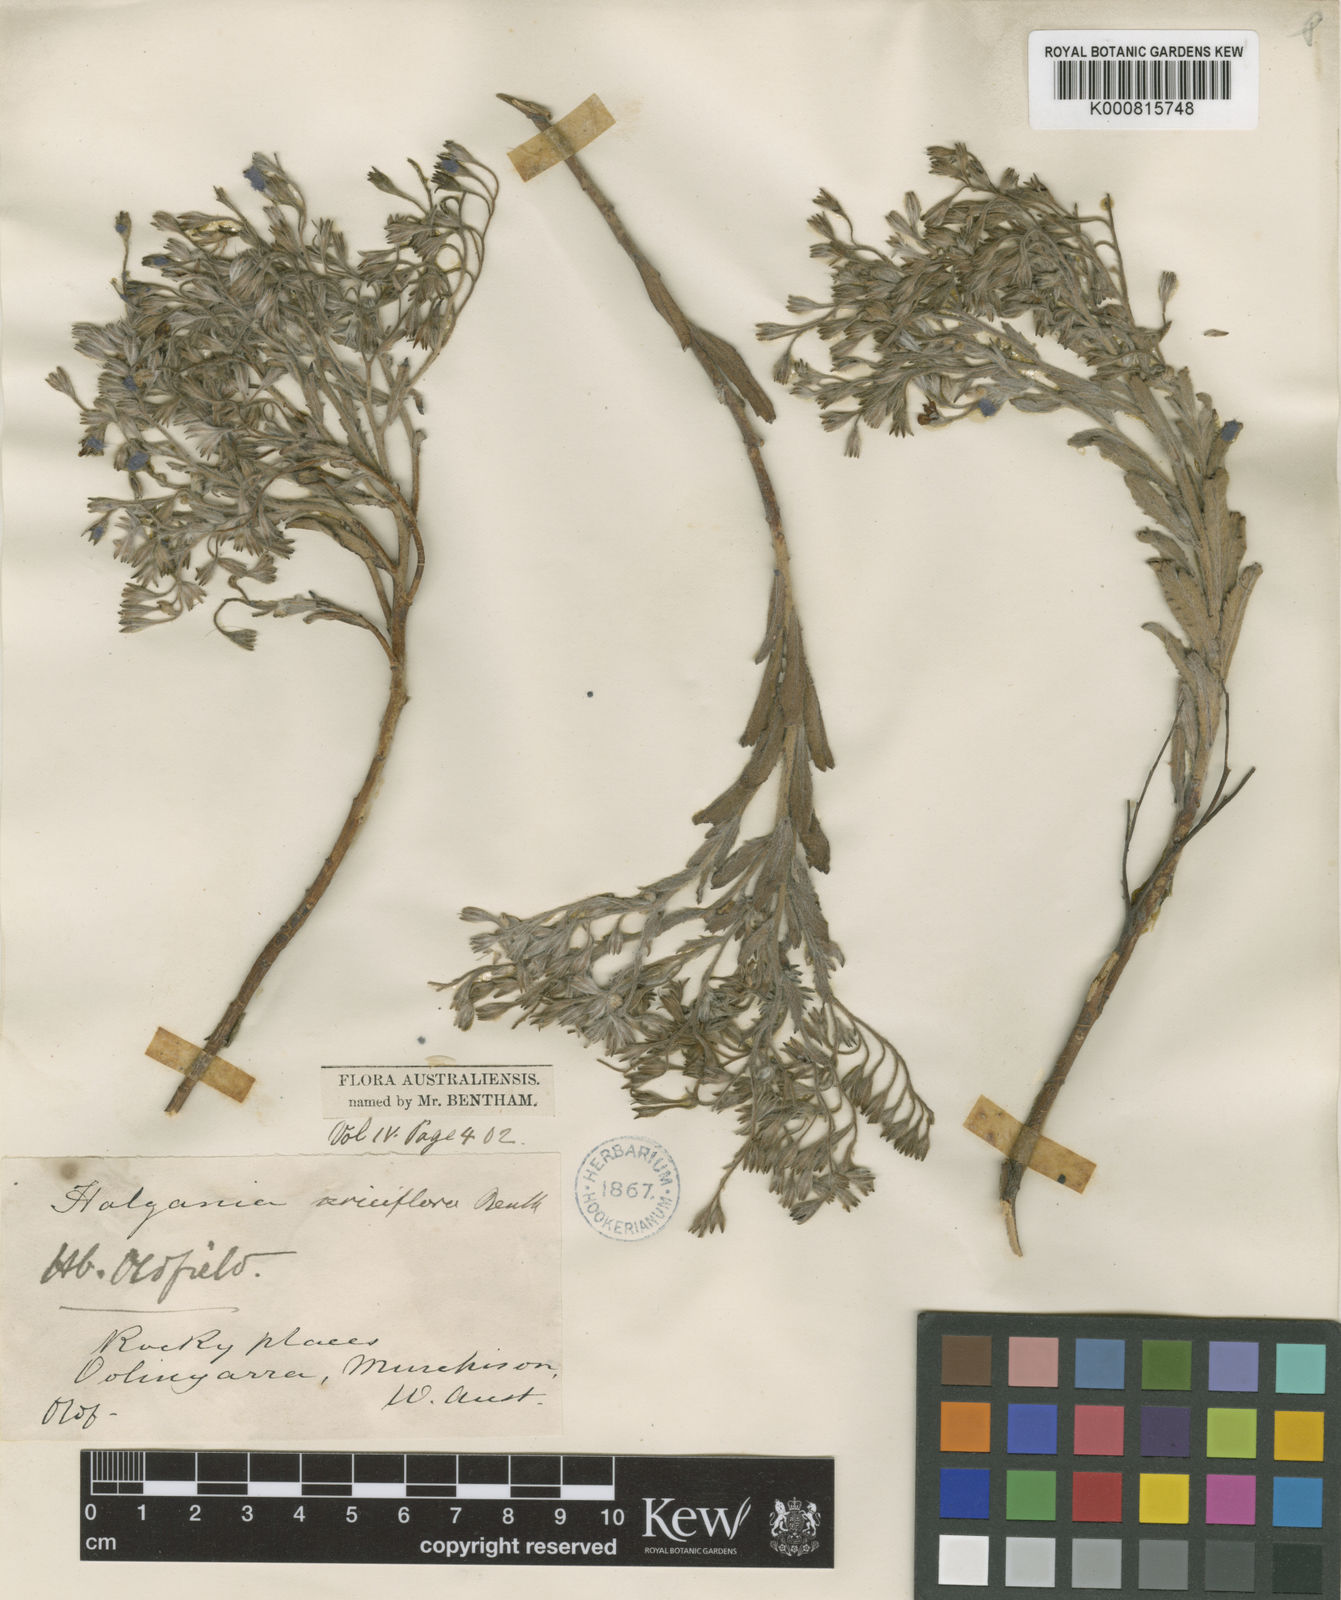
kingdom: Plantae
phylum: Tracheophyta
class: Magnoliopsida
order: Boraginales
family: Ehretiaceae
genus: Halgania
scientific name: Halgania sericiflora
